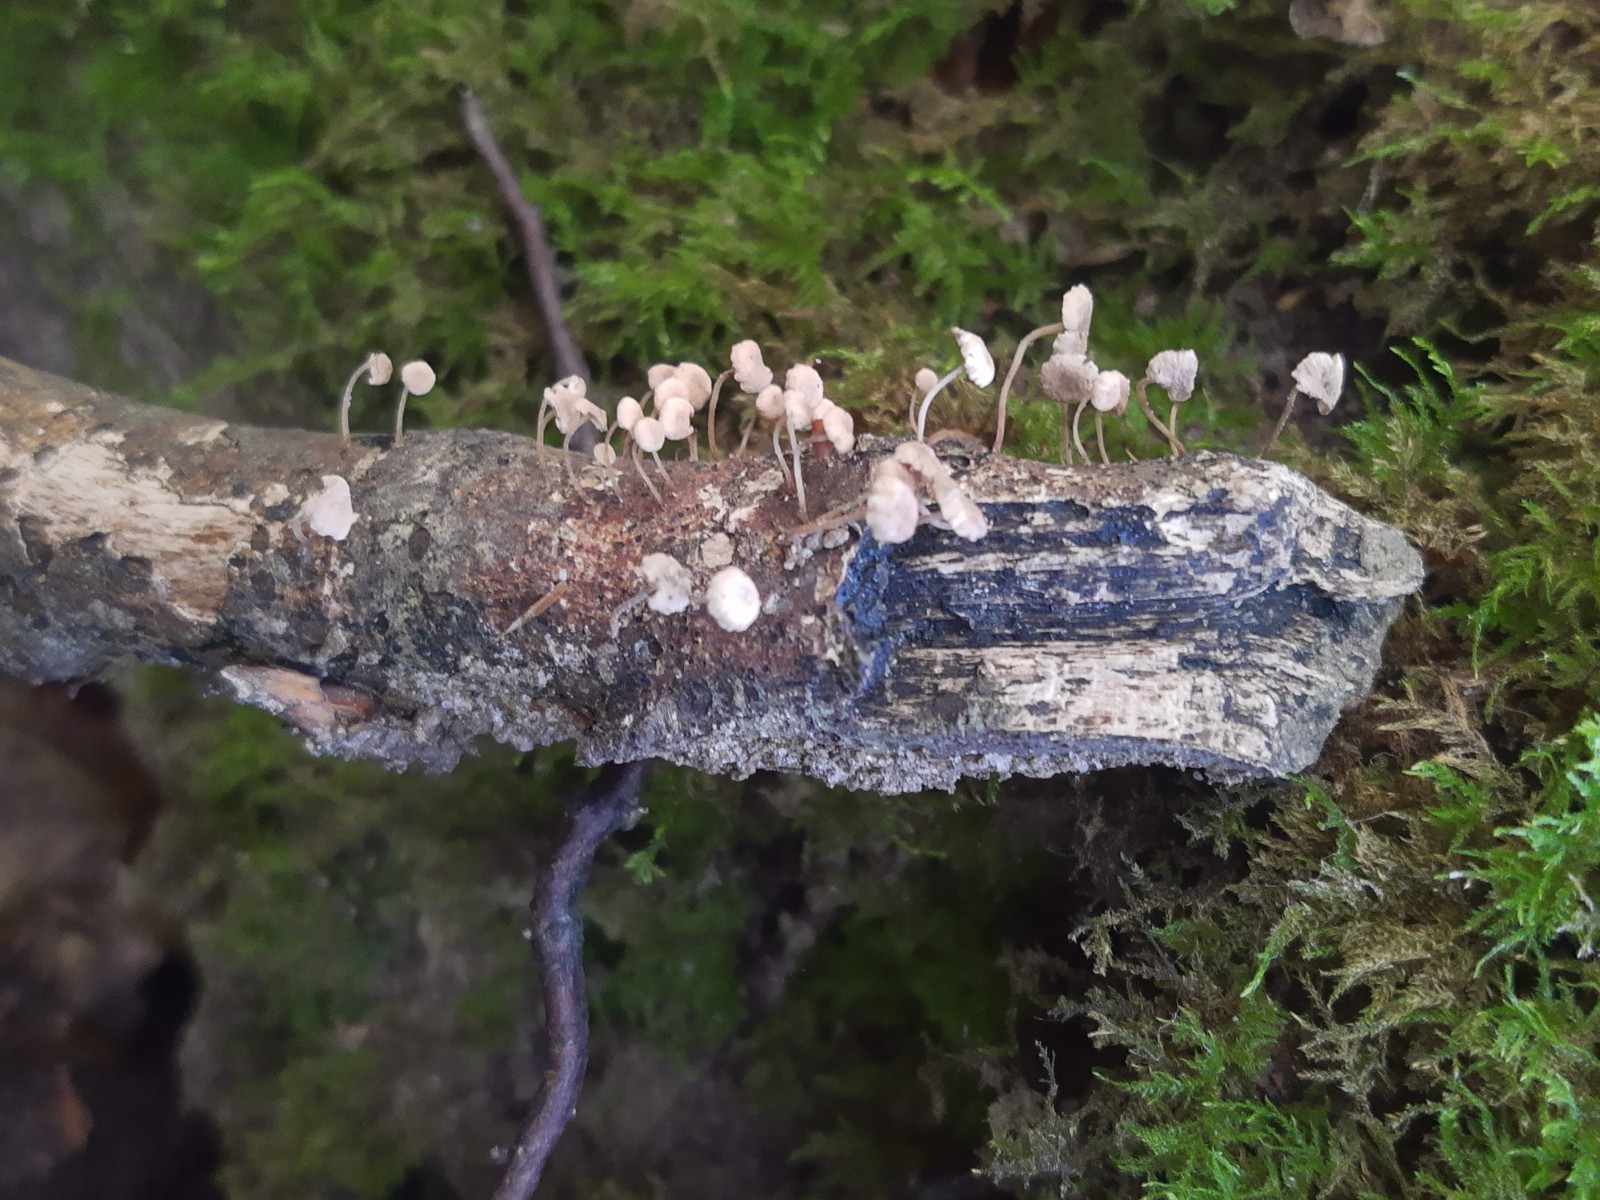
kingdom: Fungi
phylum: Basidiomycota
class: Agaricomycetes
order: Agaricales
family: Omphalotaceae
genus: Collybiopsis
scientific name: Collybiopsis ramealis
